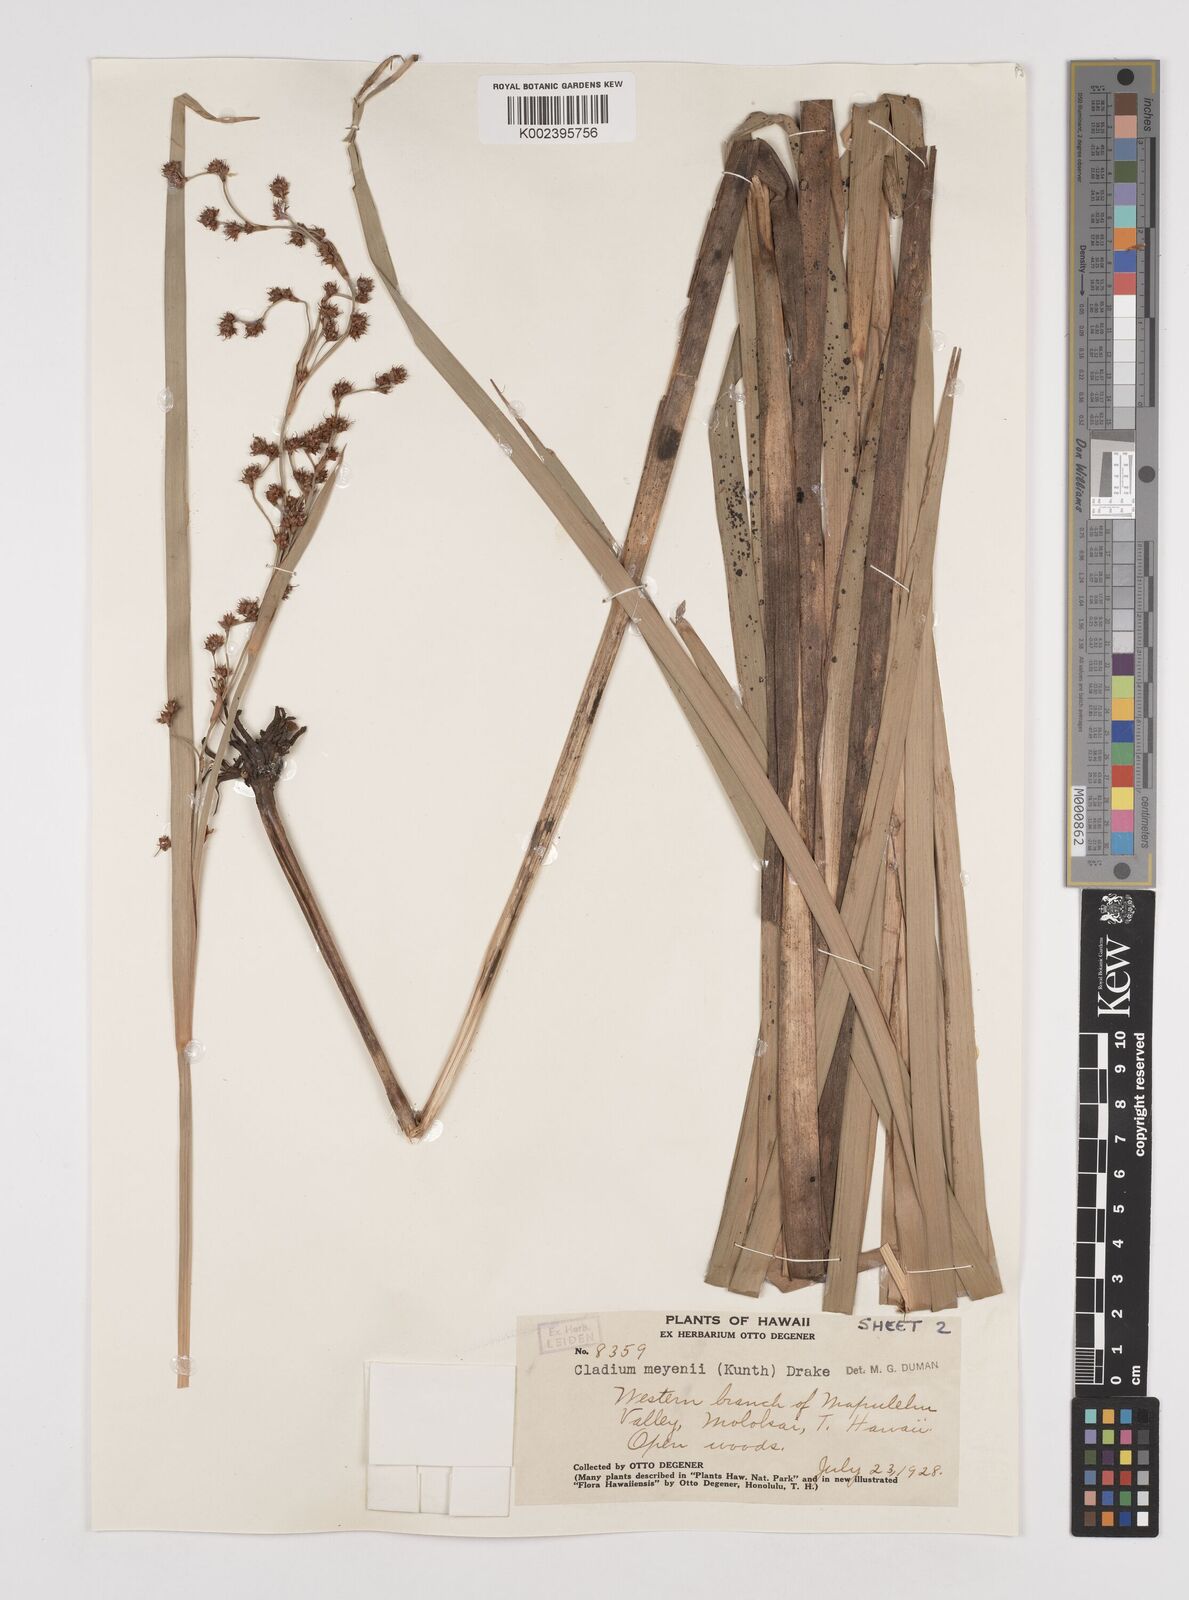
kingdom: Plantae
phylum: Tracheophyta
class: Liliopsida
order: Poales
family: Cyperaceae
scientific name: Cyperaceae
